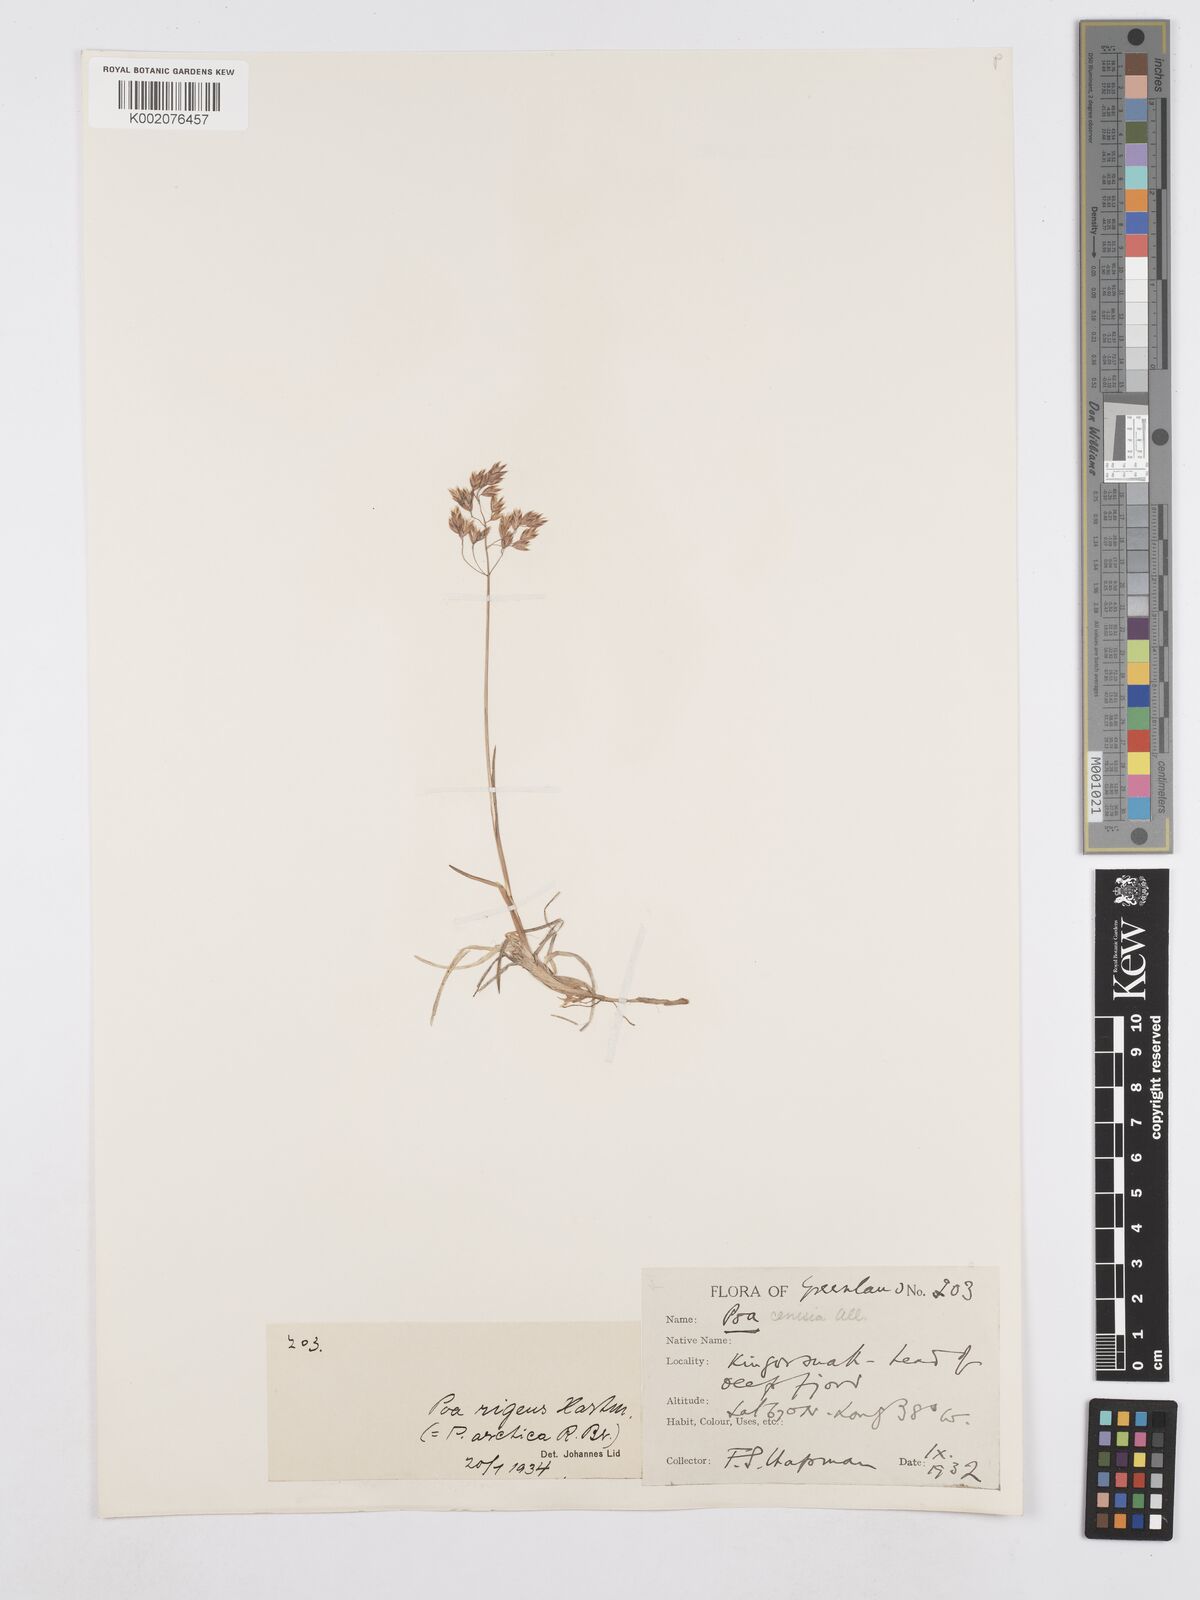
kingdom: Plantae
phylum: Tracheophyta
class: Liliopsida
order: Poales
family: Poaceae
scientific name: Poaceae
